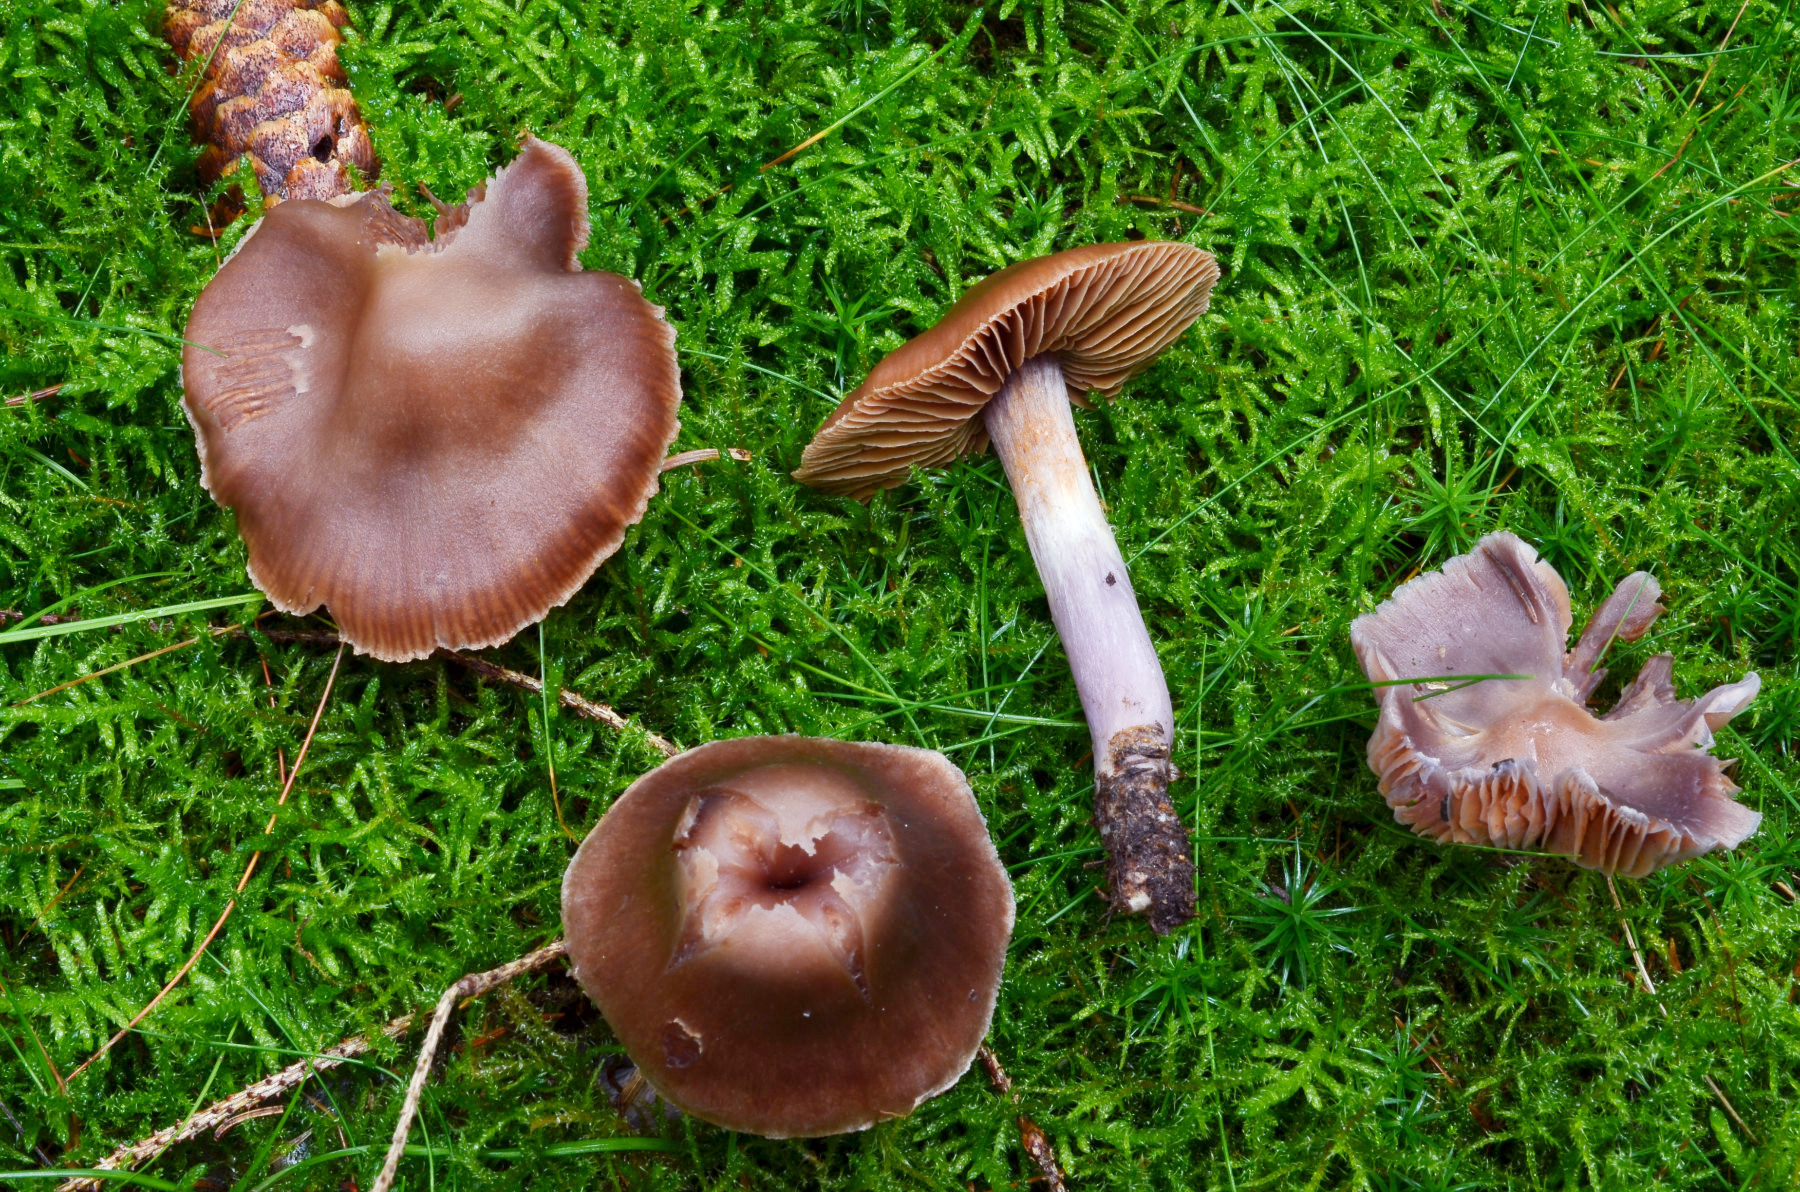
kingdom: Fungi
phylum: Basidiomycota
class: Agaricomycetes
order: Agaricales
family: Cortinariaceae
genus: Cortinarius
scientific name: Cortinarius plumulosus
